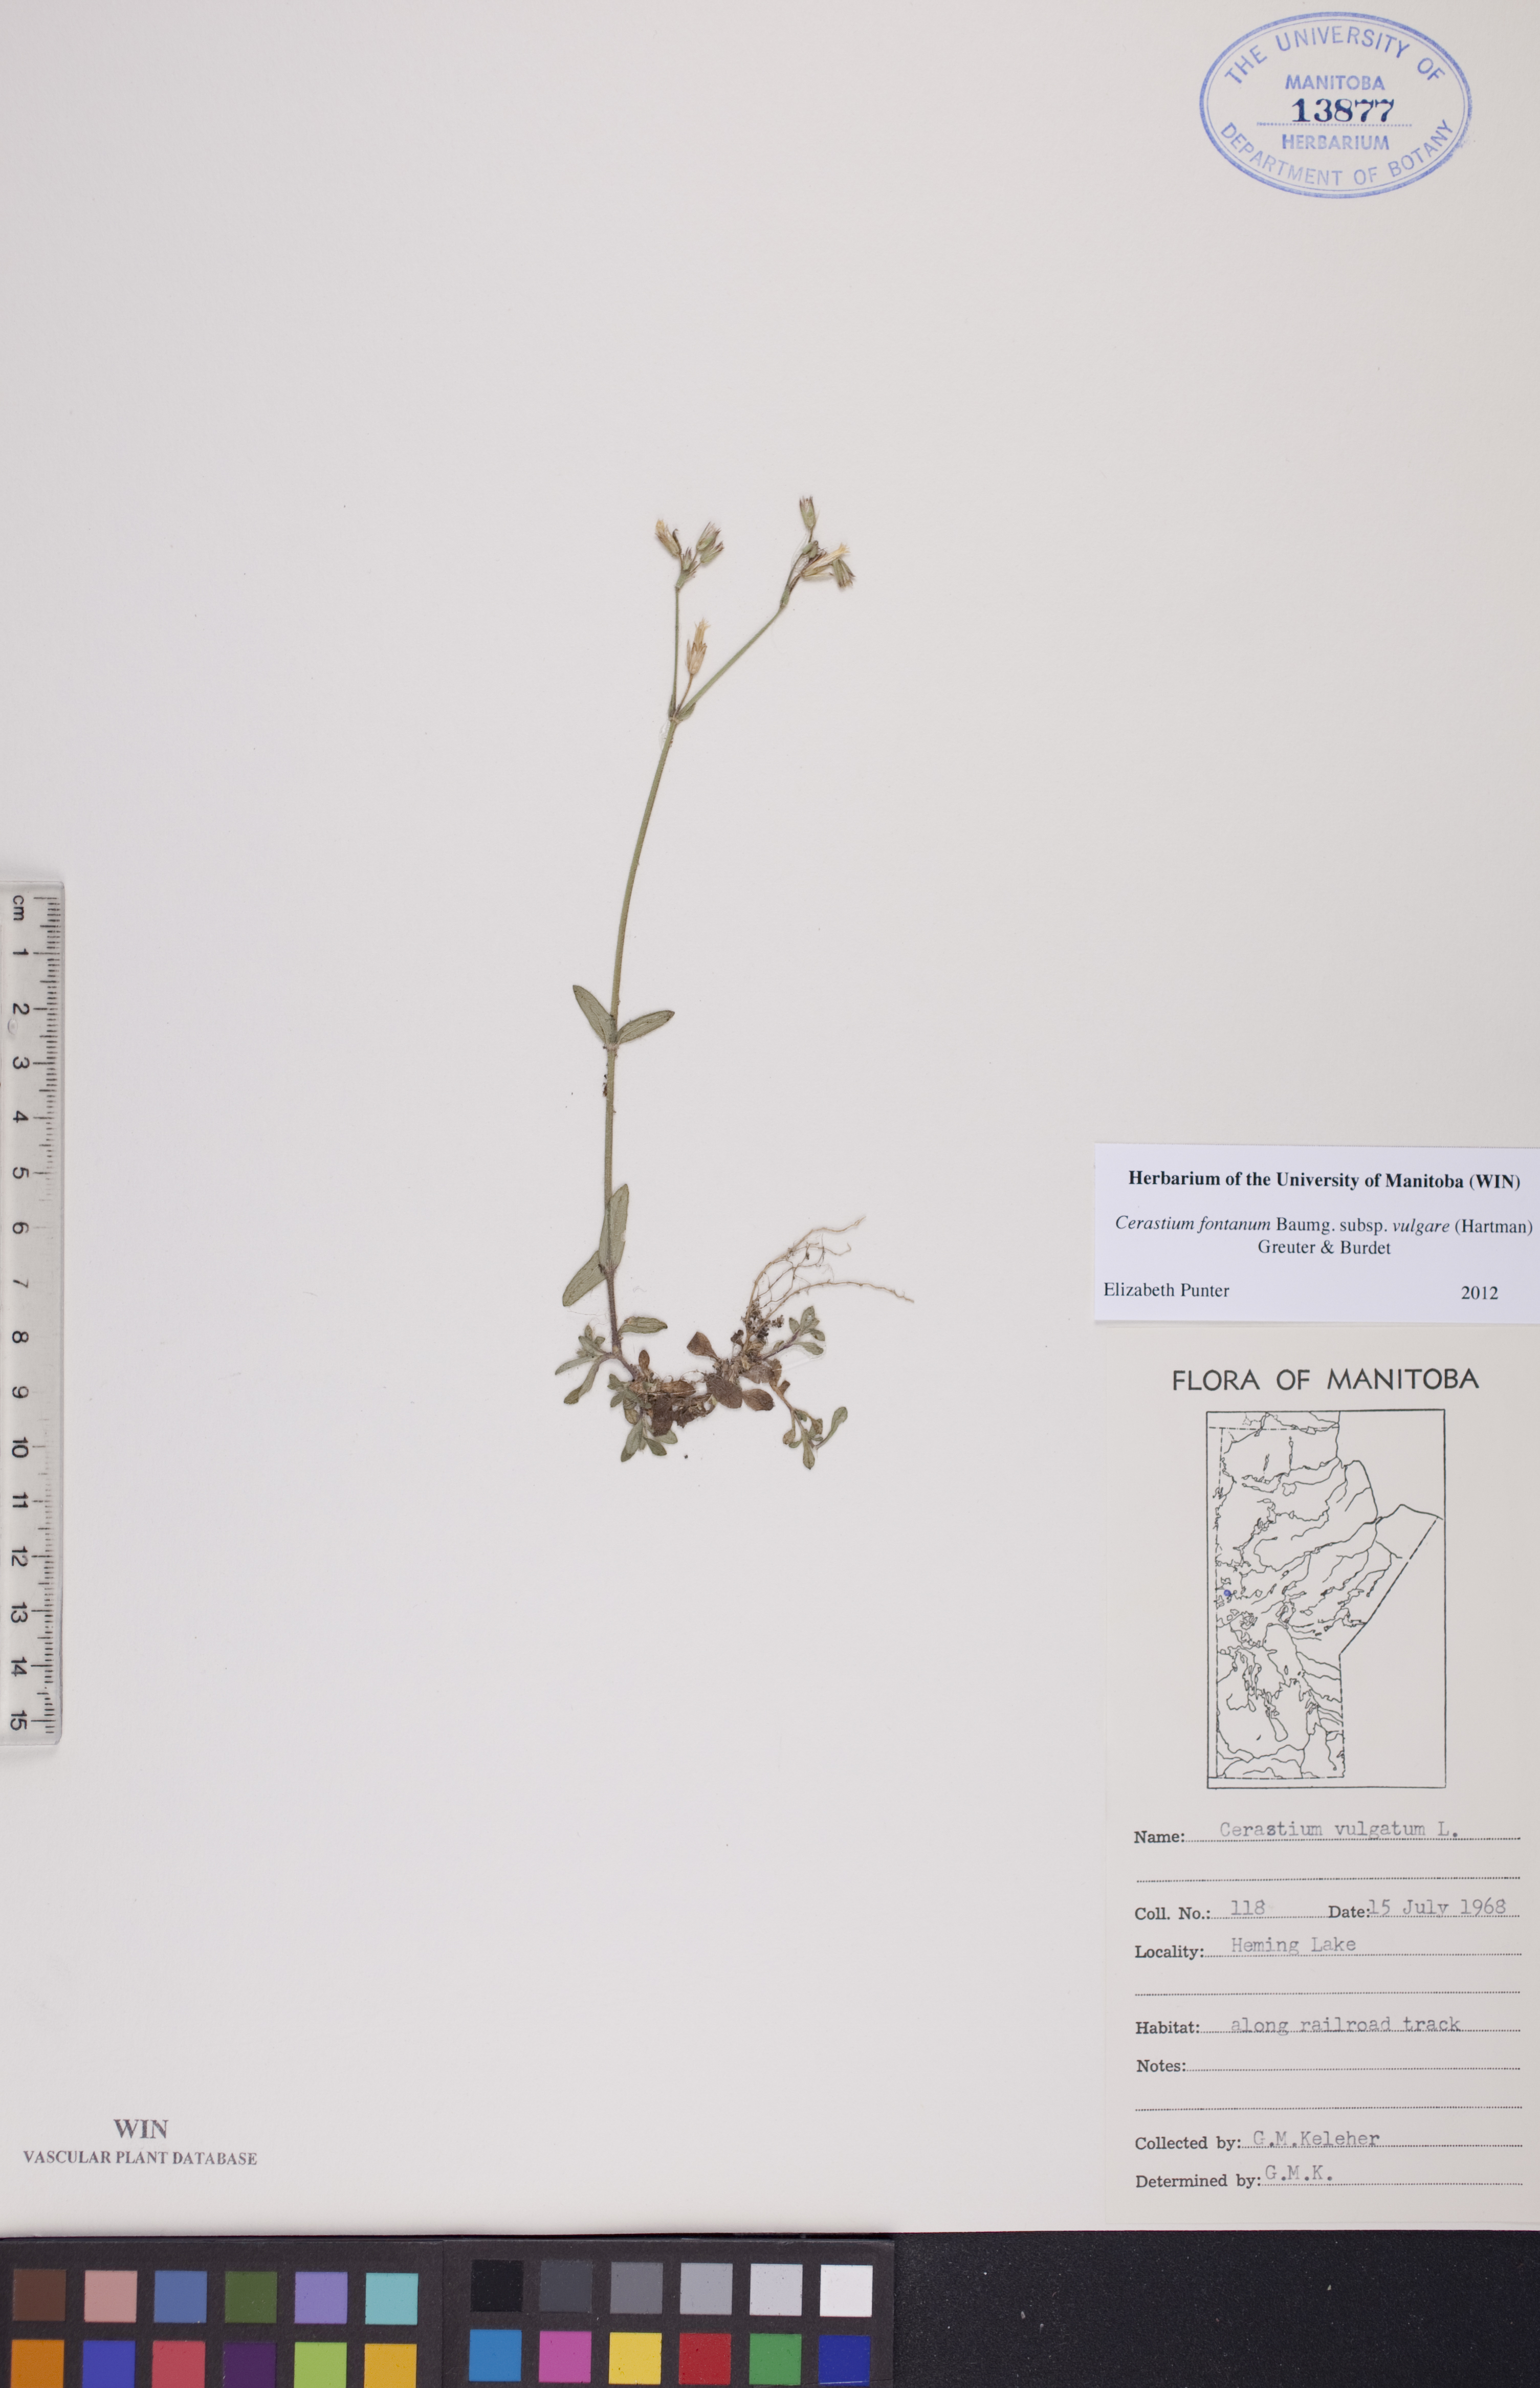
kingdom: Plantae
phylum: Tracheophyta
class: Magnoliopsida
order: Caryophyllales
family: Caryophyllaceae
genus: Cerastium
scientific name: Cerastium holosteoides
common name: Big chickweed
